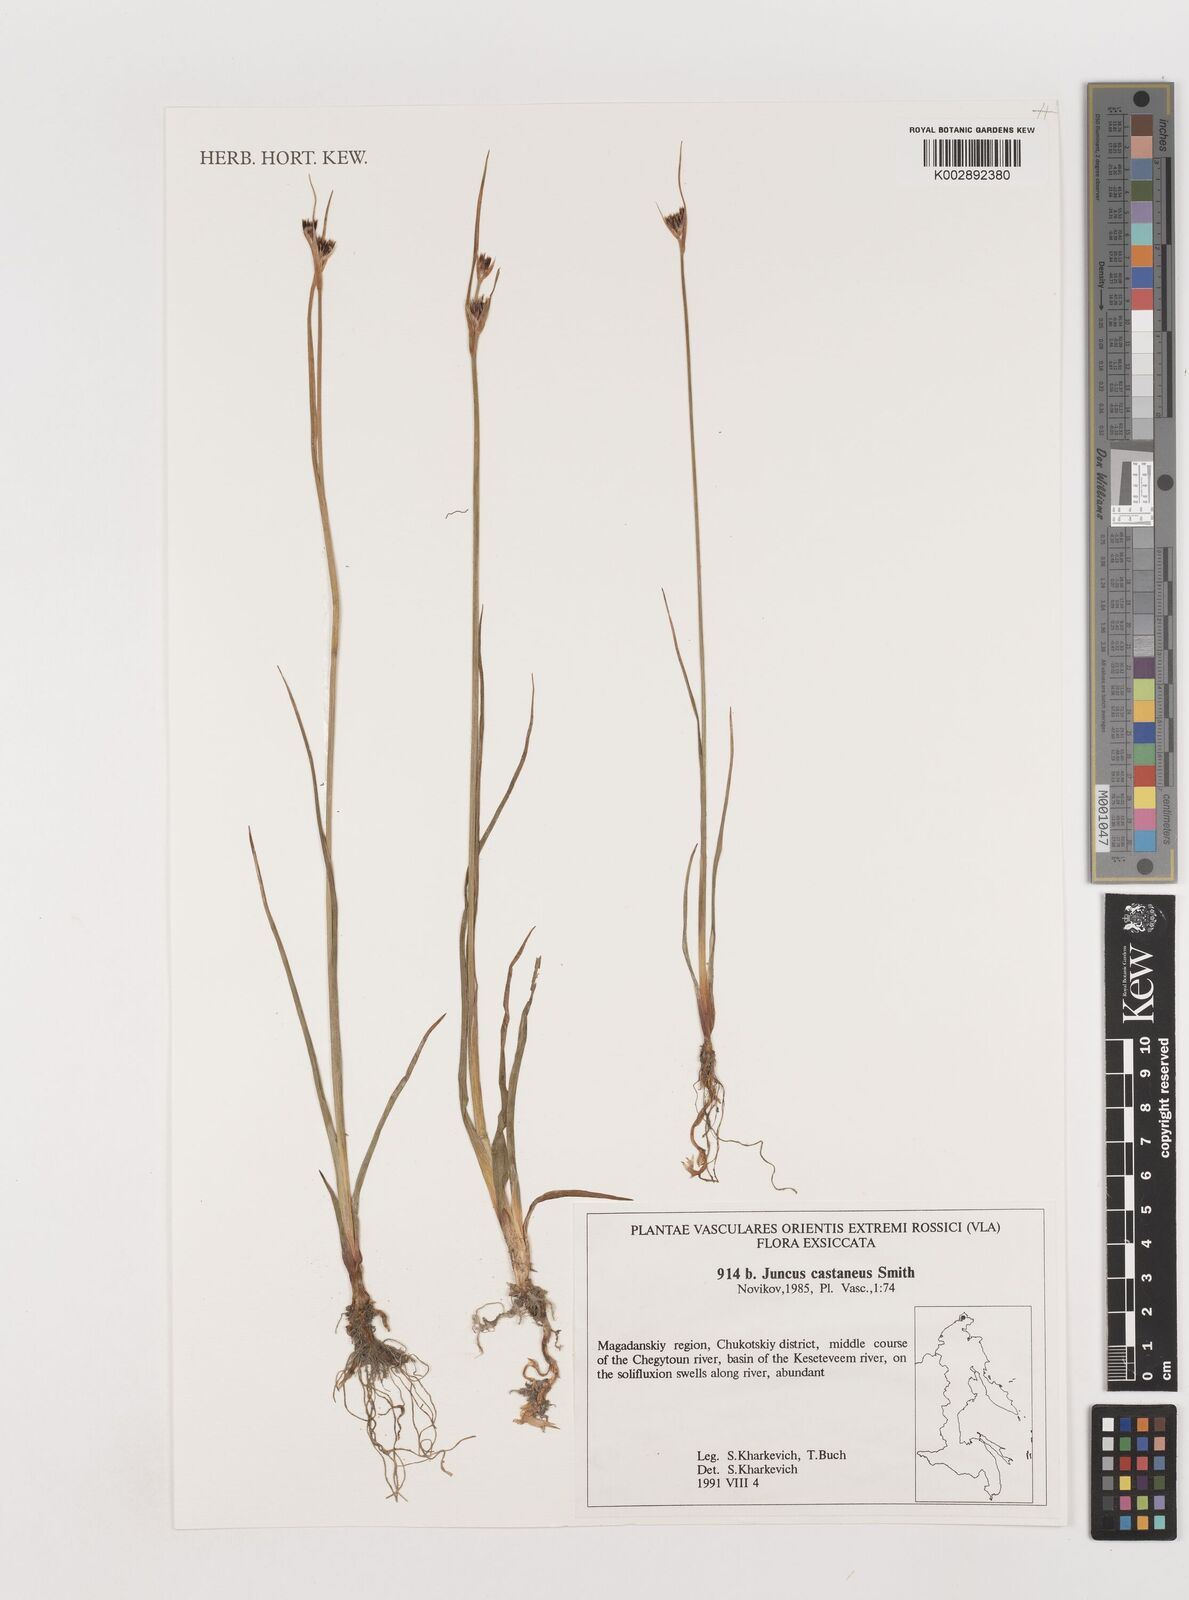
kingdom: Plantae
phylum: Tracheophyta
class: Liliopsida
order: Poales
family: Juncaceae
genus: Juncus
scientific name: Juncus castaneus
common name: Chestnut rush
